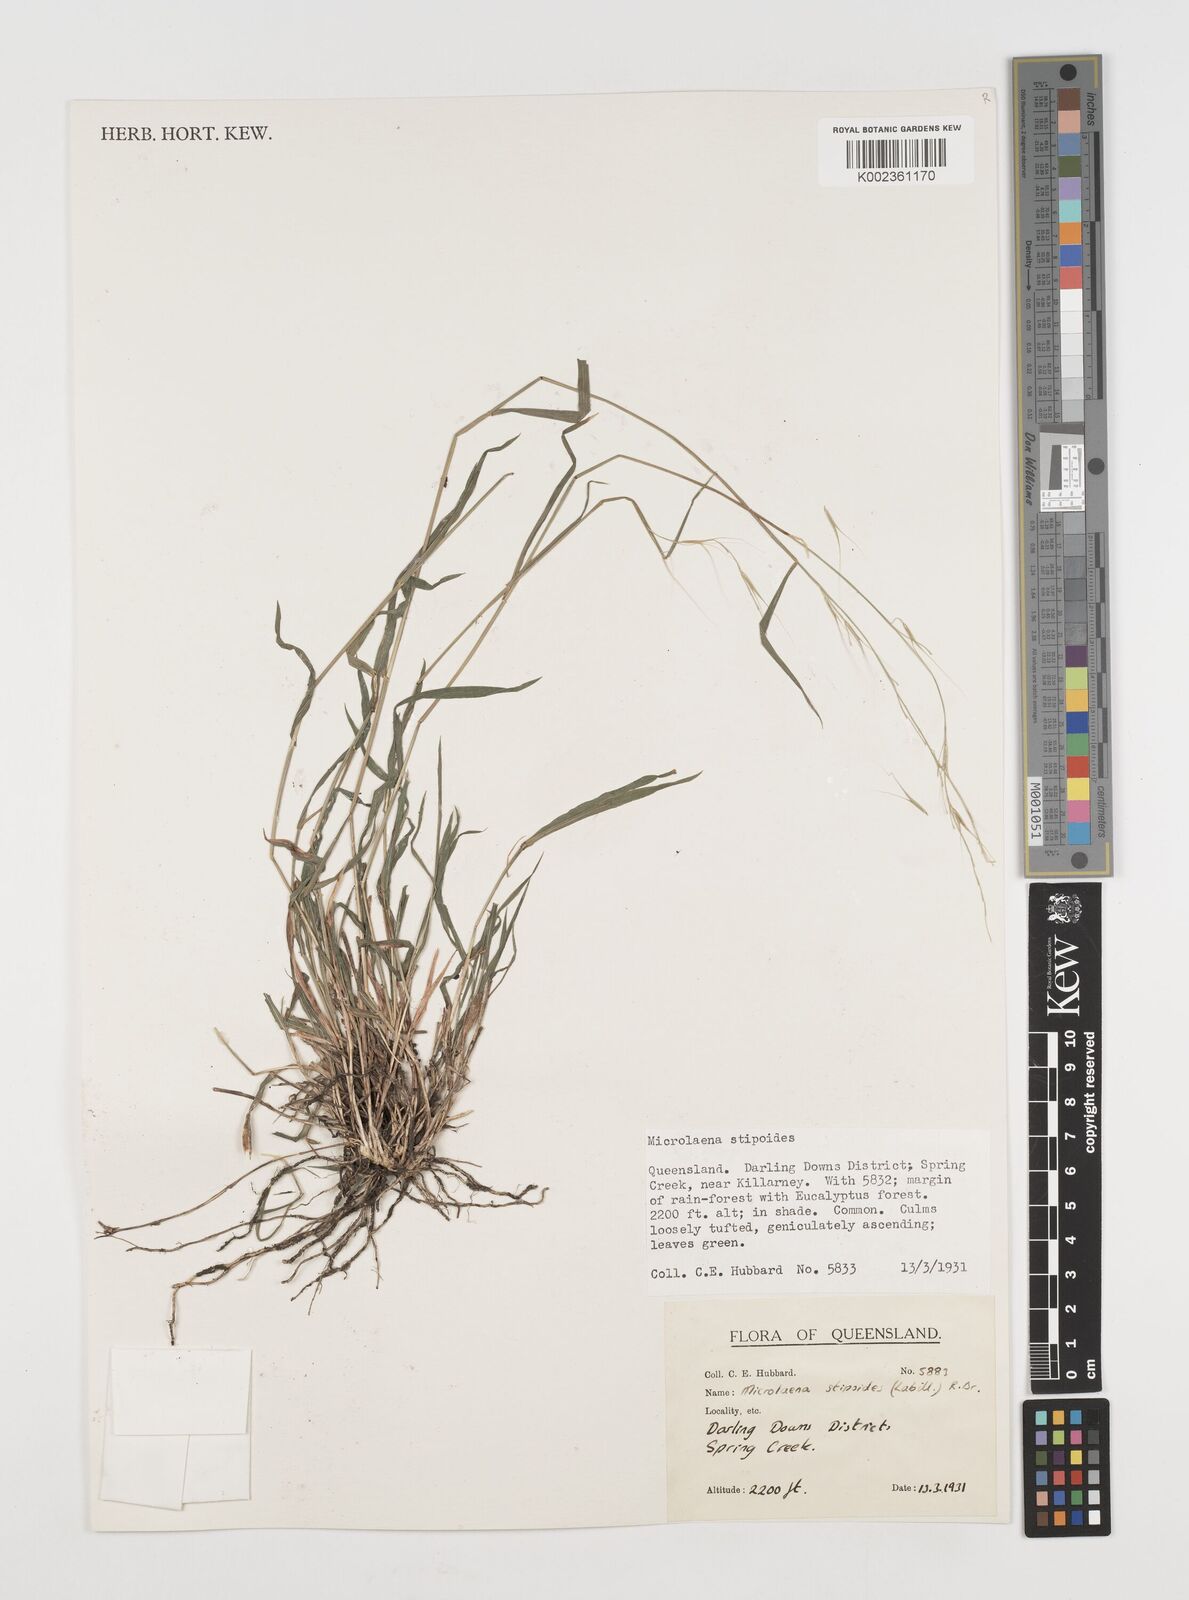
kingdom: Plantae
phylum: Tracheophyta
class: Liliopsida
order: Poales
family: Poaceae
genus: Microlaena
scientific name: Microlaena stipoides
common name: Meadow ricegrass
